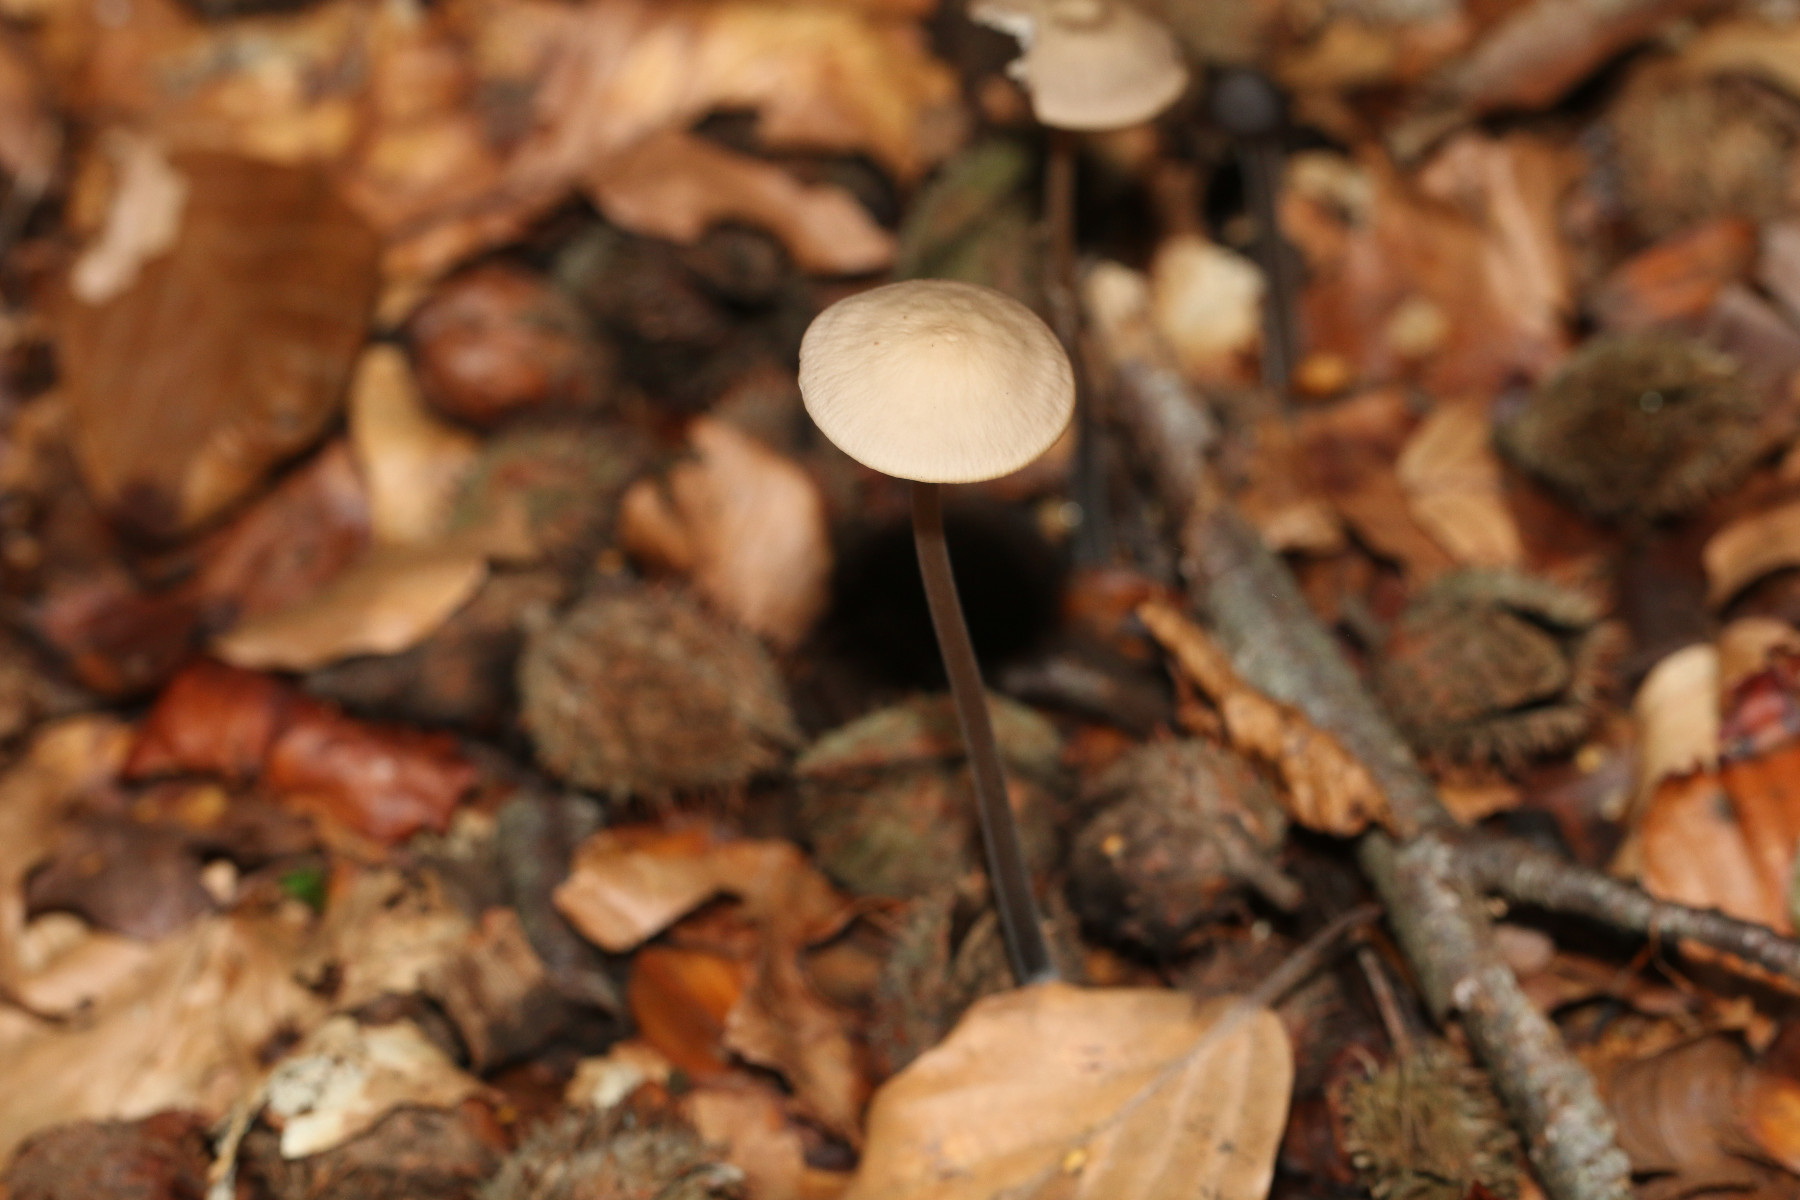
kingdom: Fungi
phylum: Basidiomycota
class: Agaricomycetes
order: Agaricales
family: Omphalotaceae
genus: Mycetinis
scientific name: Mycetinis alliaceus
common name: stor løghat
